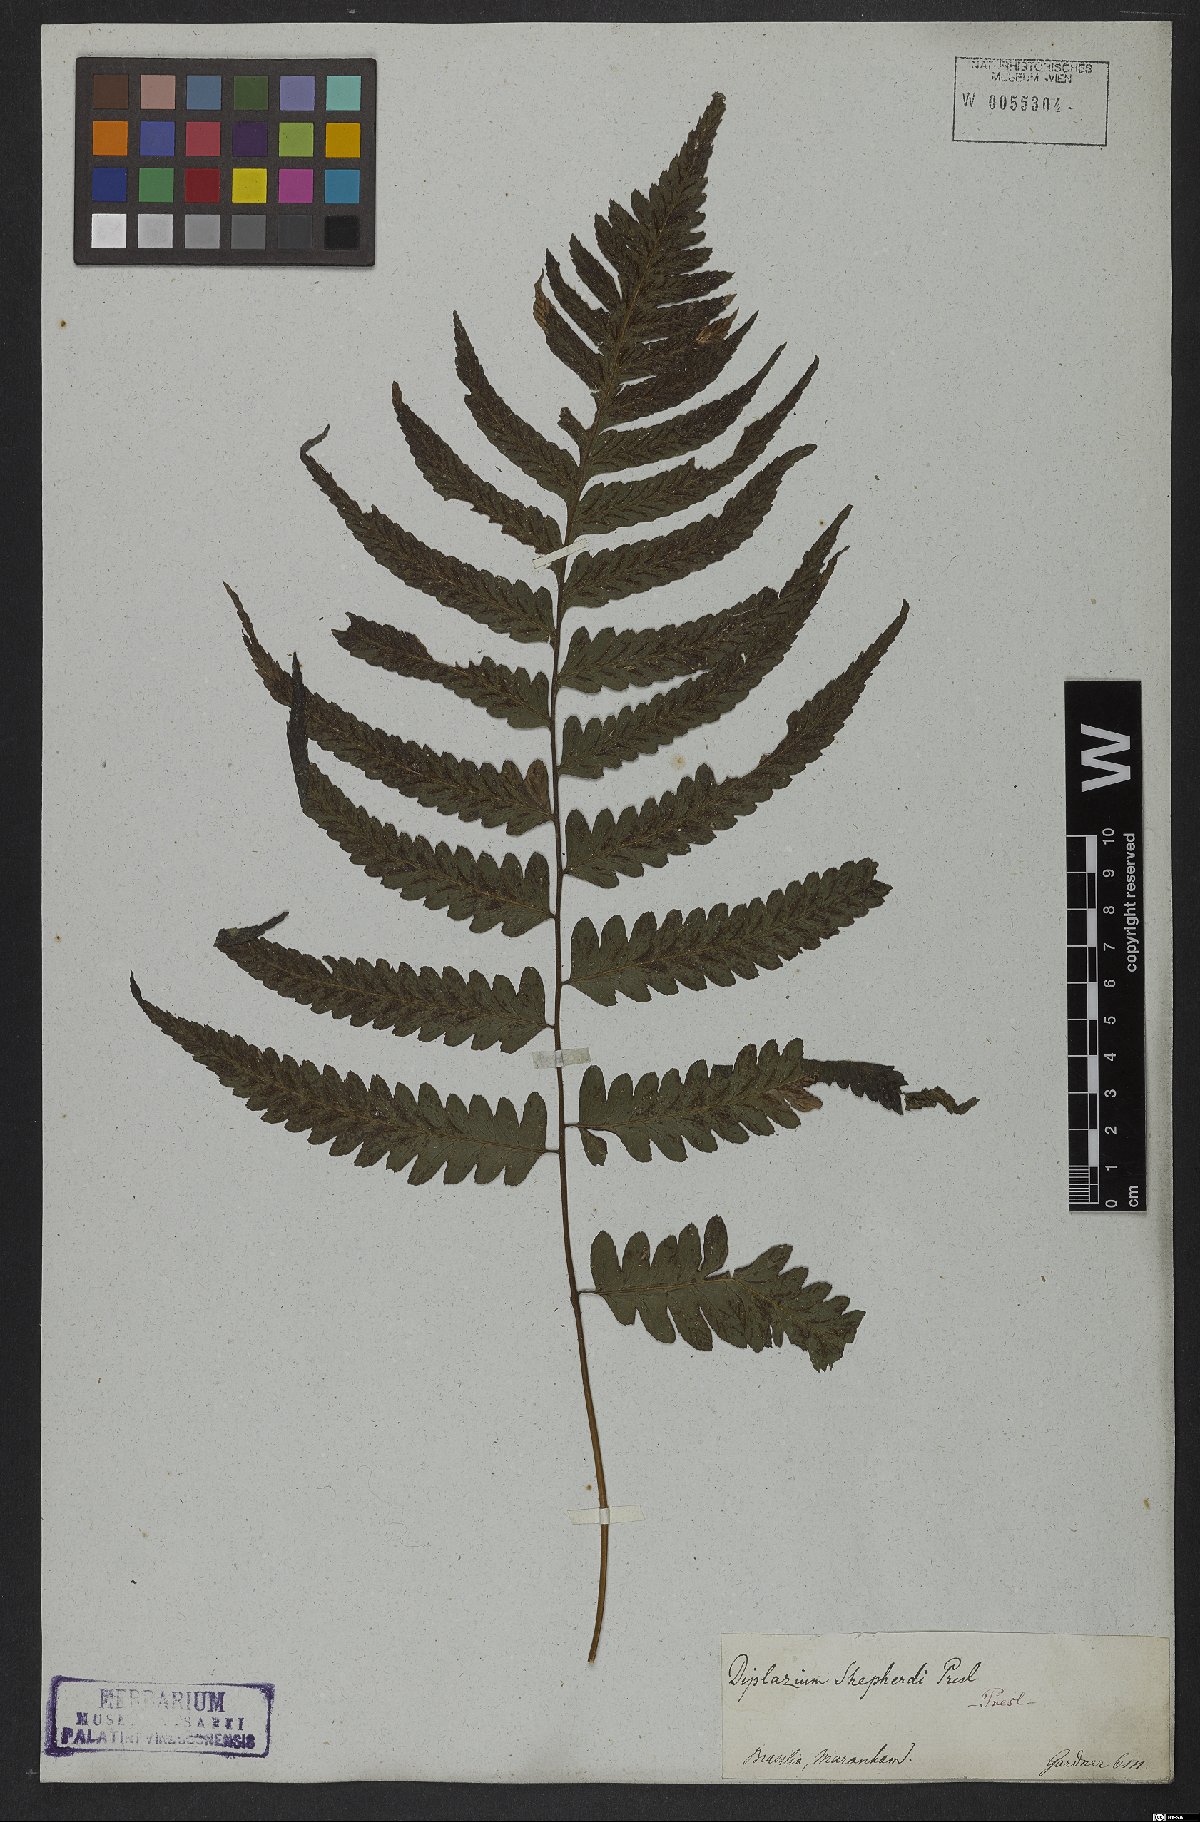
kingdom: Plantae
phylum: Tracheophyta
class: Polypodiopsida
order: Polypodiales
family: Athyriaceae
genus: Diplazium
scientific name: Diplazium cristatum
